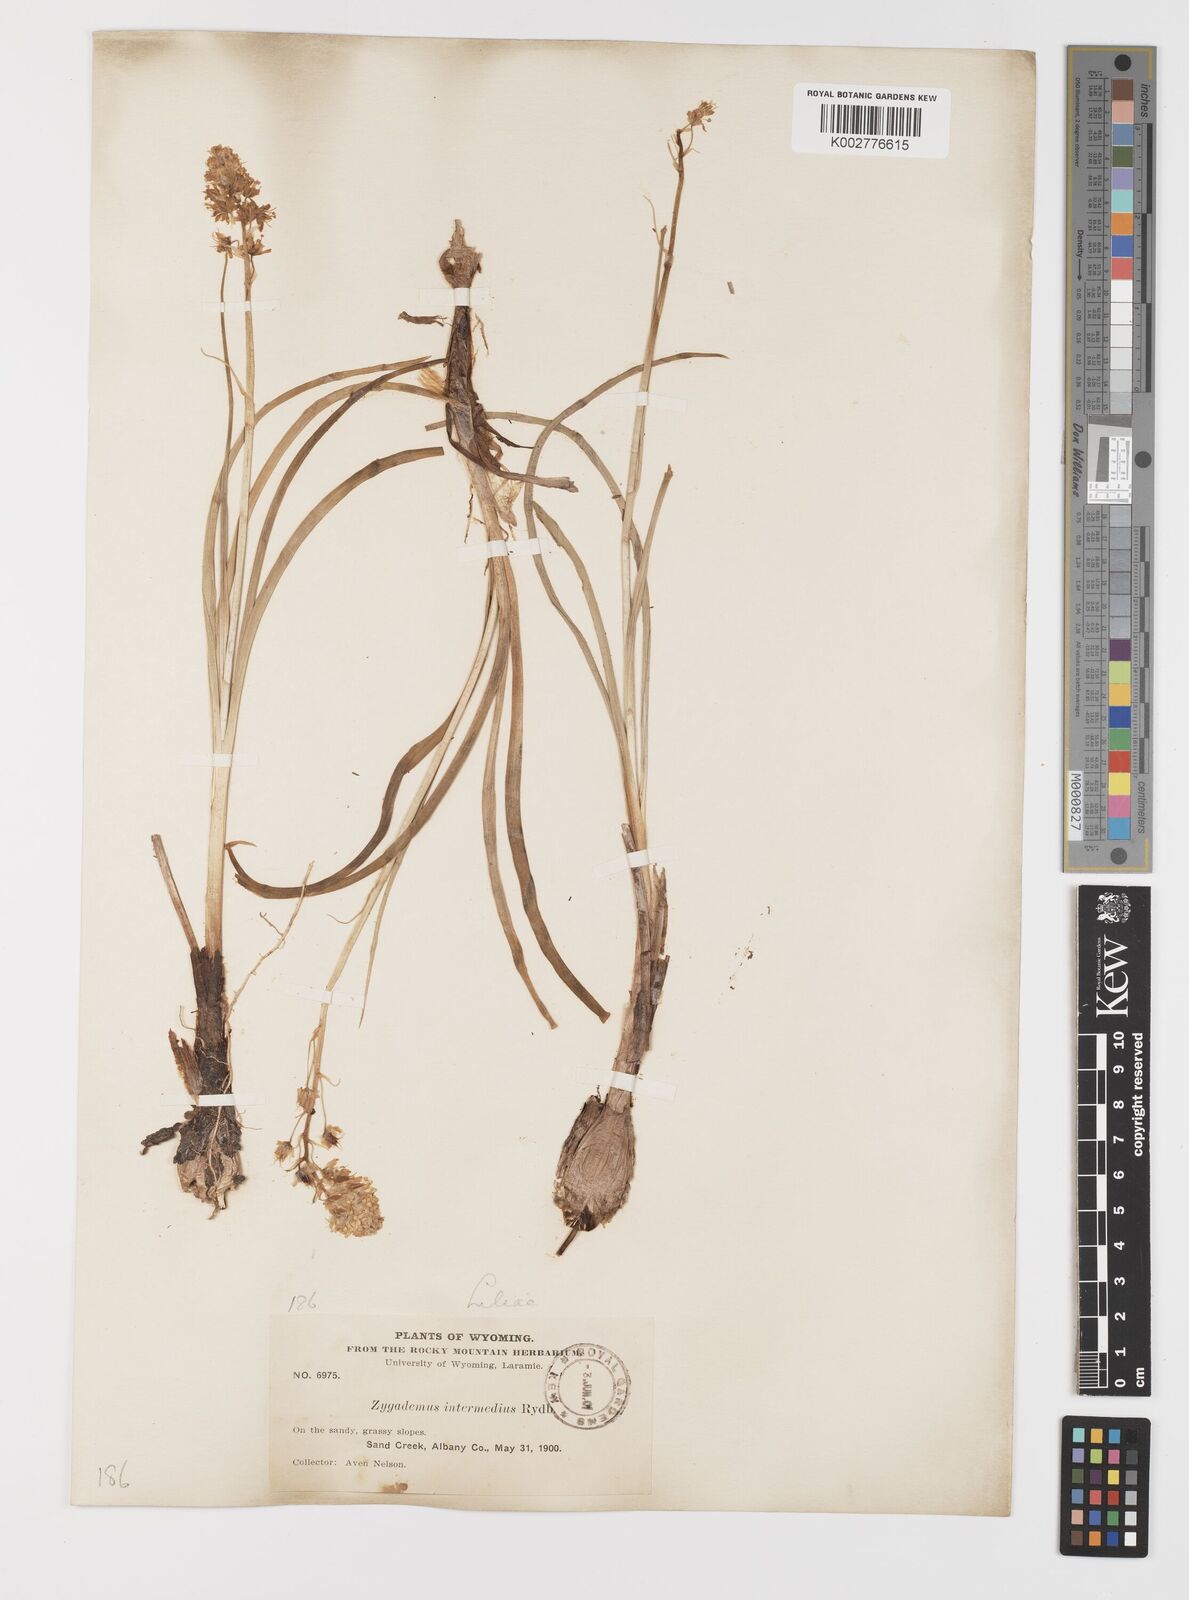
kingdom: Plantae
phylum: Tracheophyta
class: Liliopsida
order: Liliales
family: Melanthiaceae
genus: Toxicoscordion
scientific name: Toxicoscordion venenosum
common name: Meadow death camas
